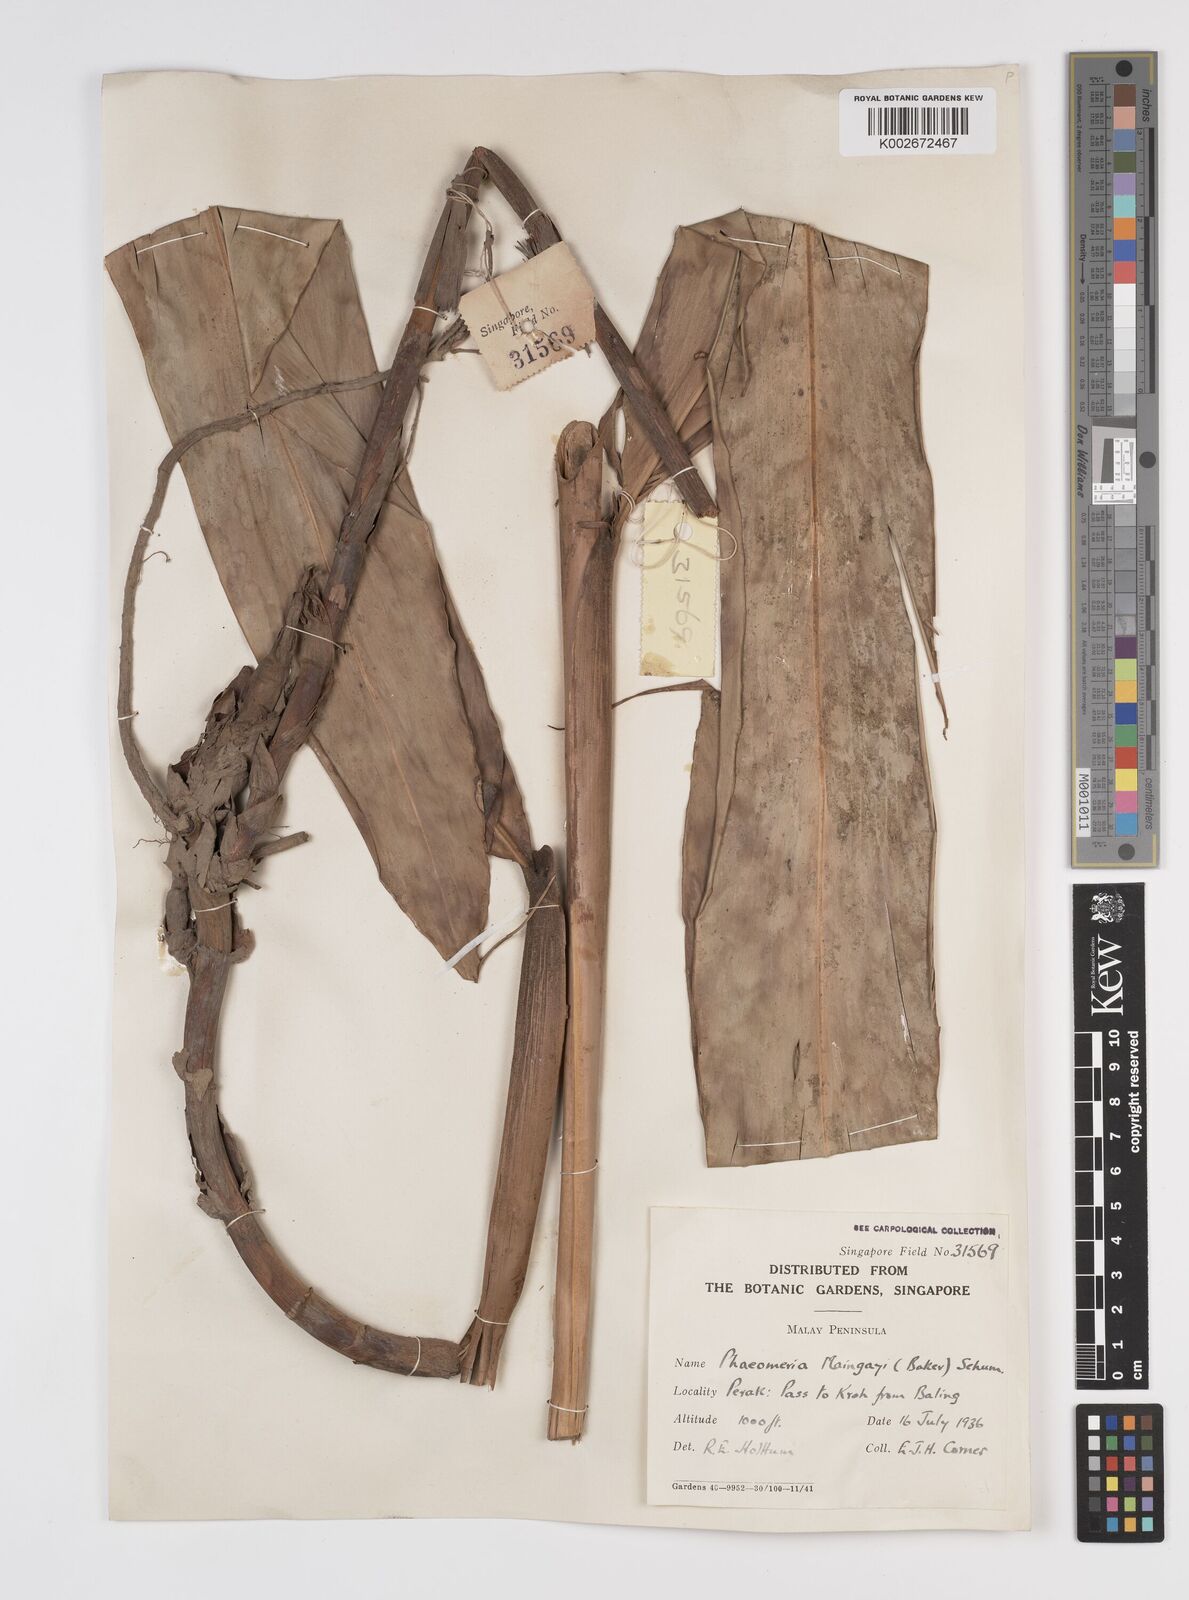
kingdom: Plantae
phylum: Tracheophyta
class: Liliopsida
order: Zingiberales
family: Zingiberaceae
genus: Etlingera
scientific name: Etlingera maingayi
